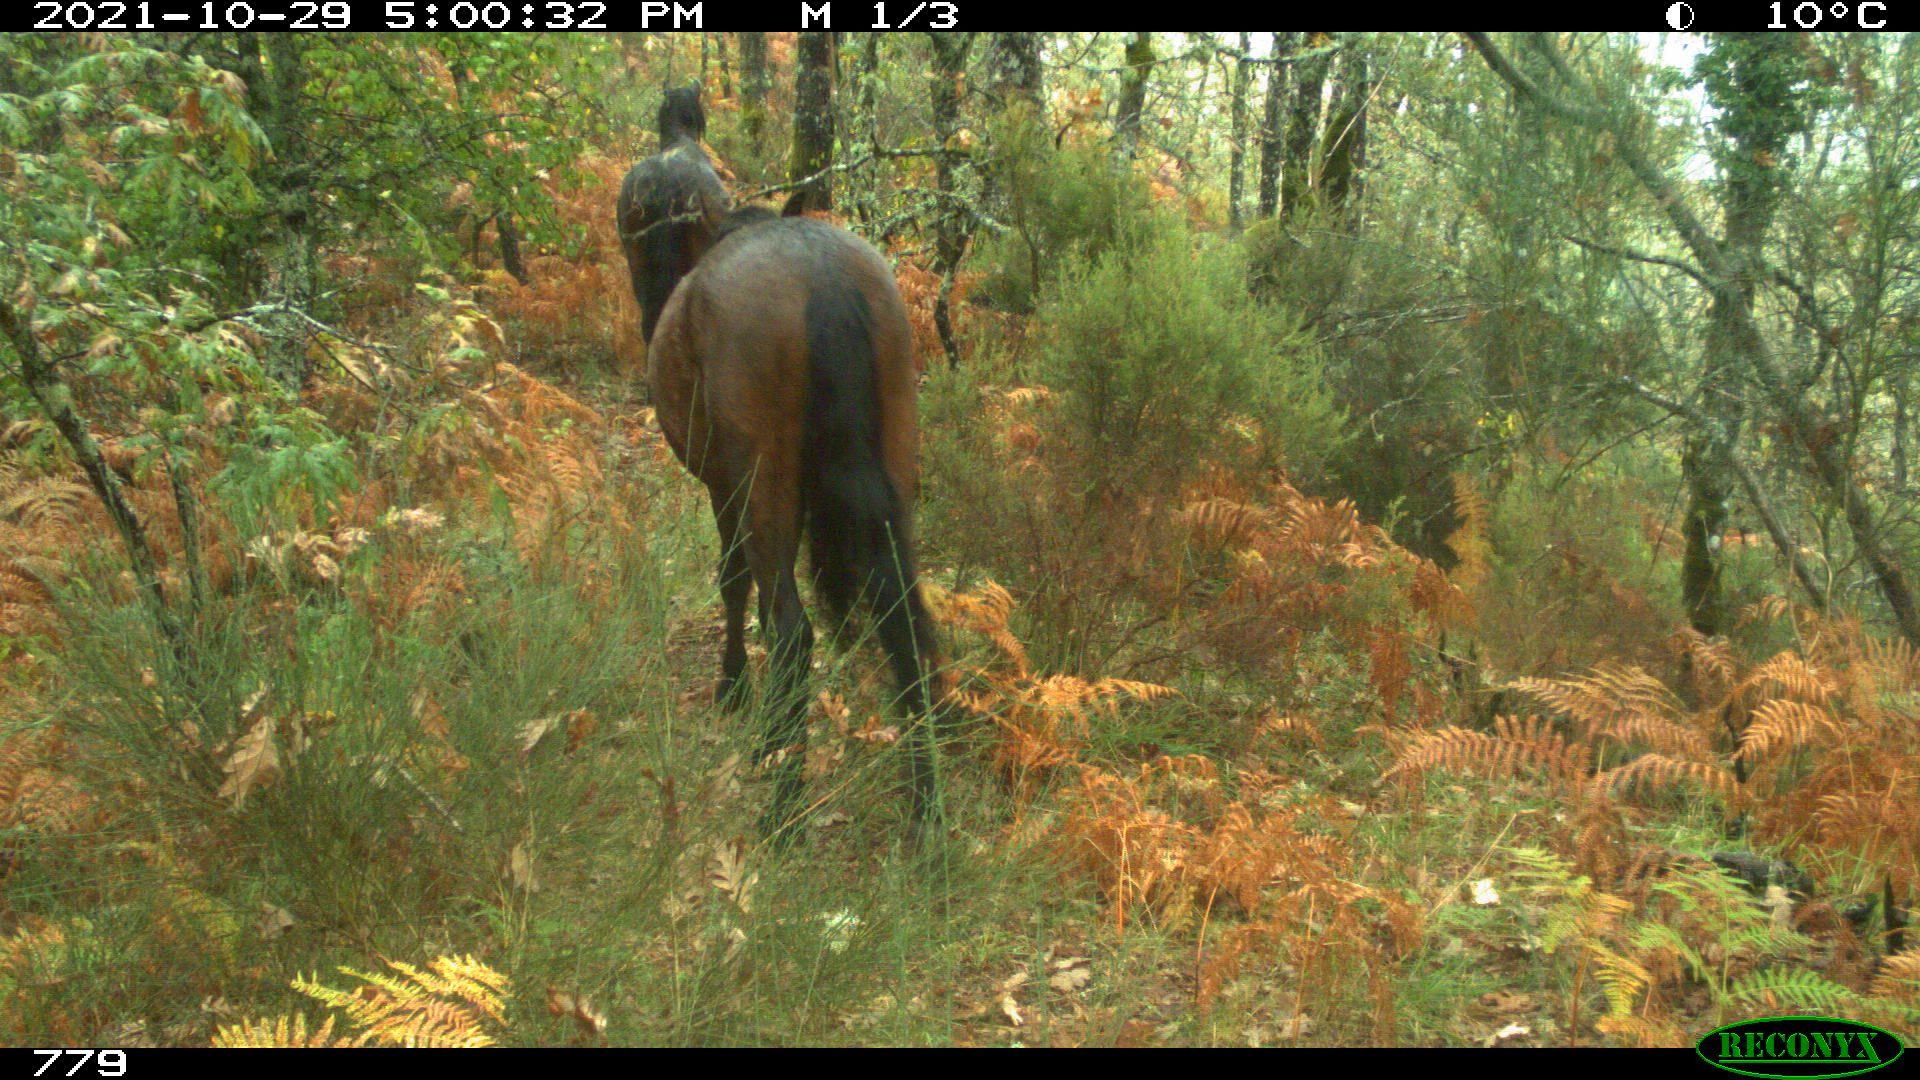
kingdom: Animalia
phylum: Chordata
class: Mammalia
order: Perissodactyla
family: Equidae
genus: Equus
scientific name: Equus caballus
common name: Horse
